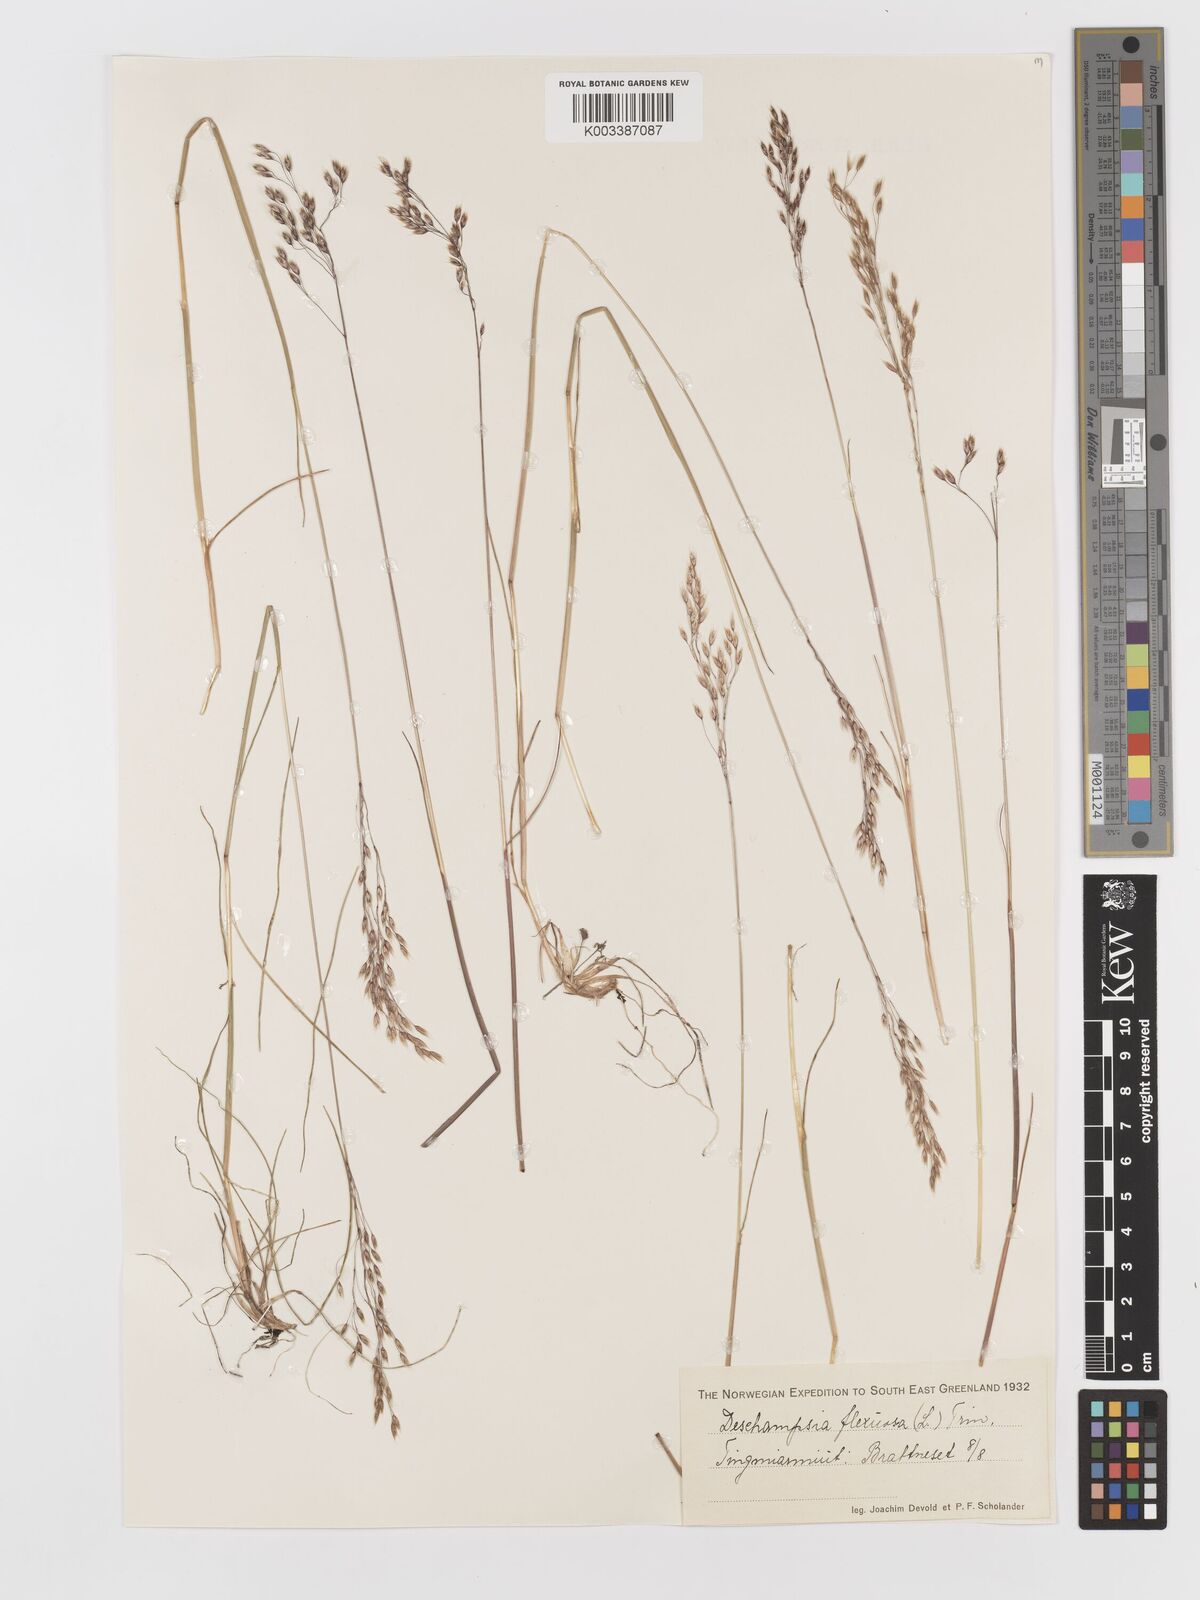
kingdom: Plantae
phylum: Tracheophyta
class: Liliopsida
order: Poales
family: Poaceae
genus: Avenella
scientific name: Avenella flexuosa
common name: Wavy hairgrass
